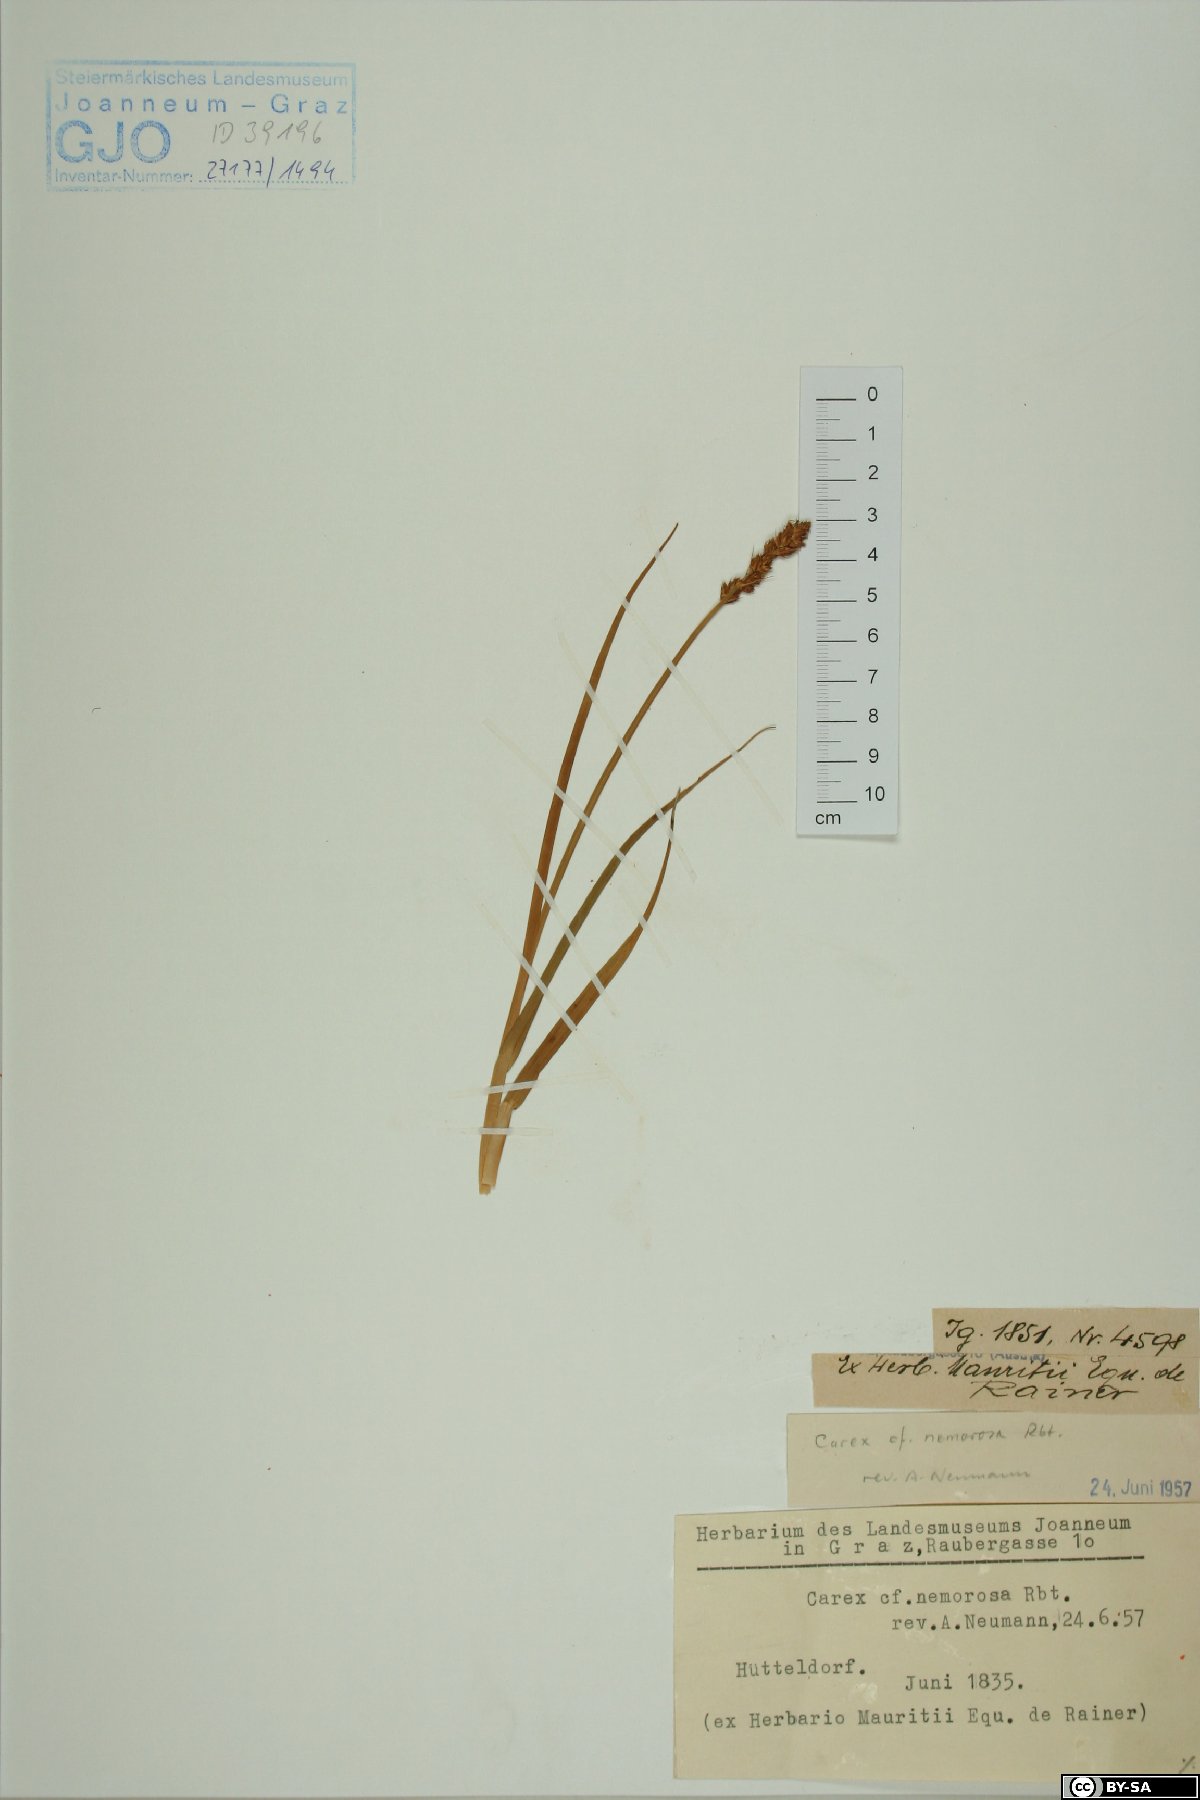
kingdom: Plantae
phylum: Tracheophyta
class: Liliopsida
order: Poales
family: Cyperaceae
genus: Carex
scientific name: Carex otrubae
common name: False fox-sedge
